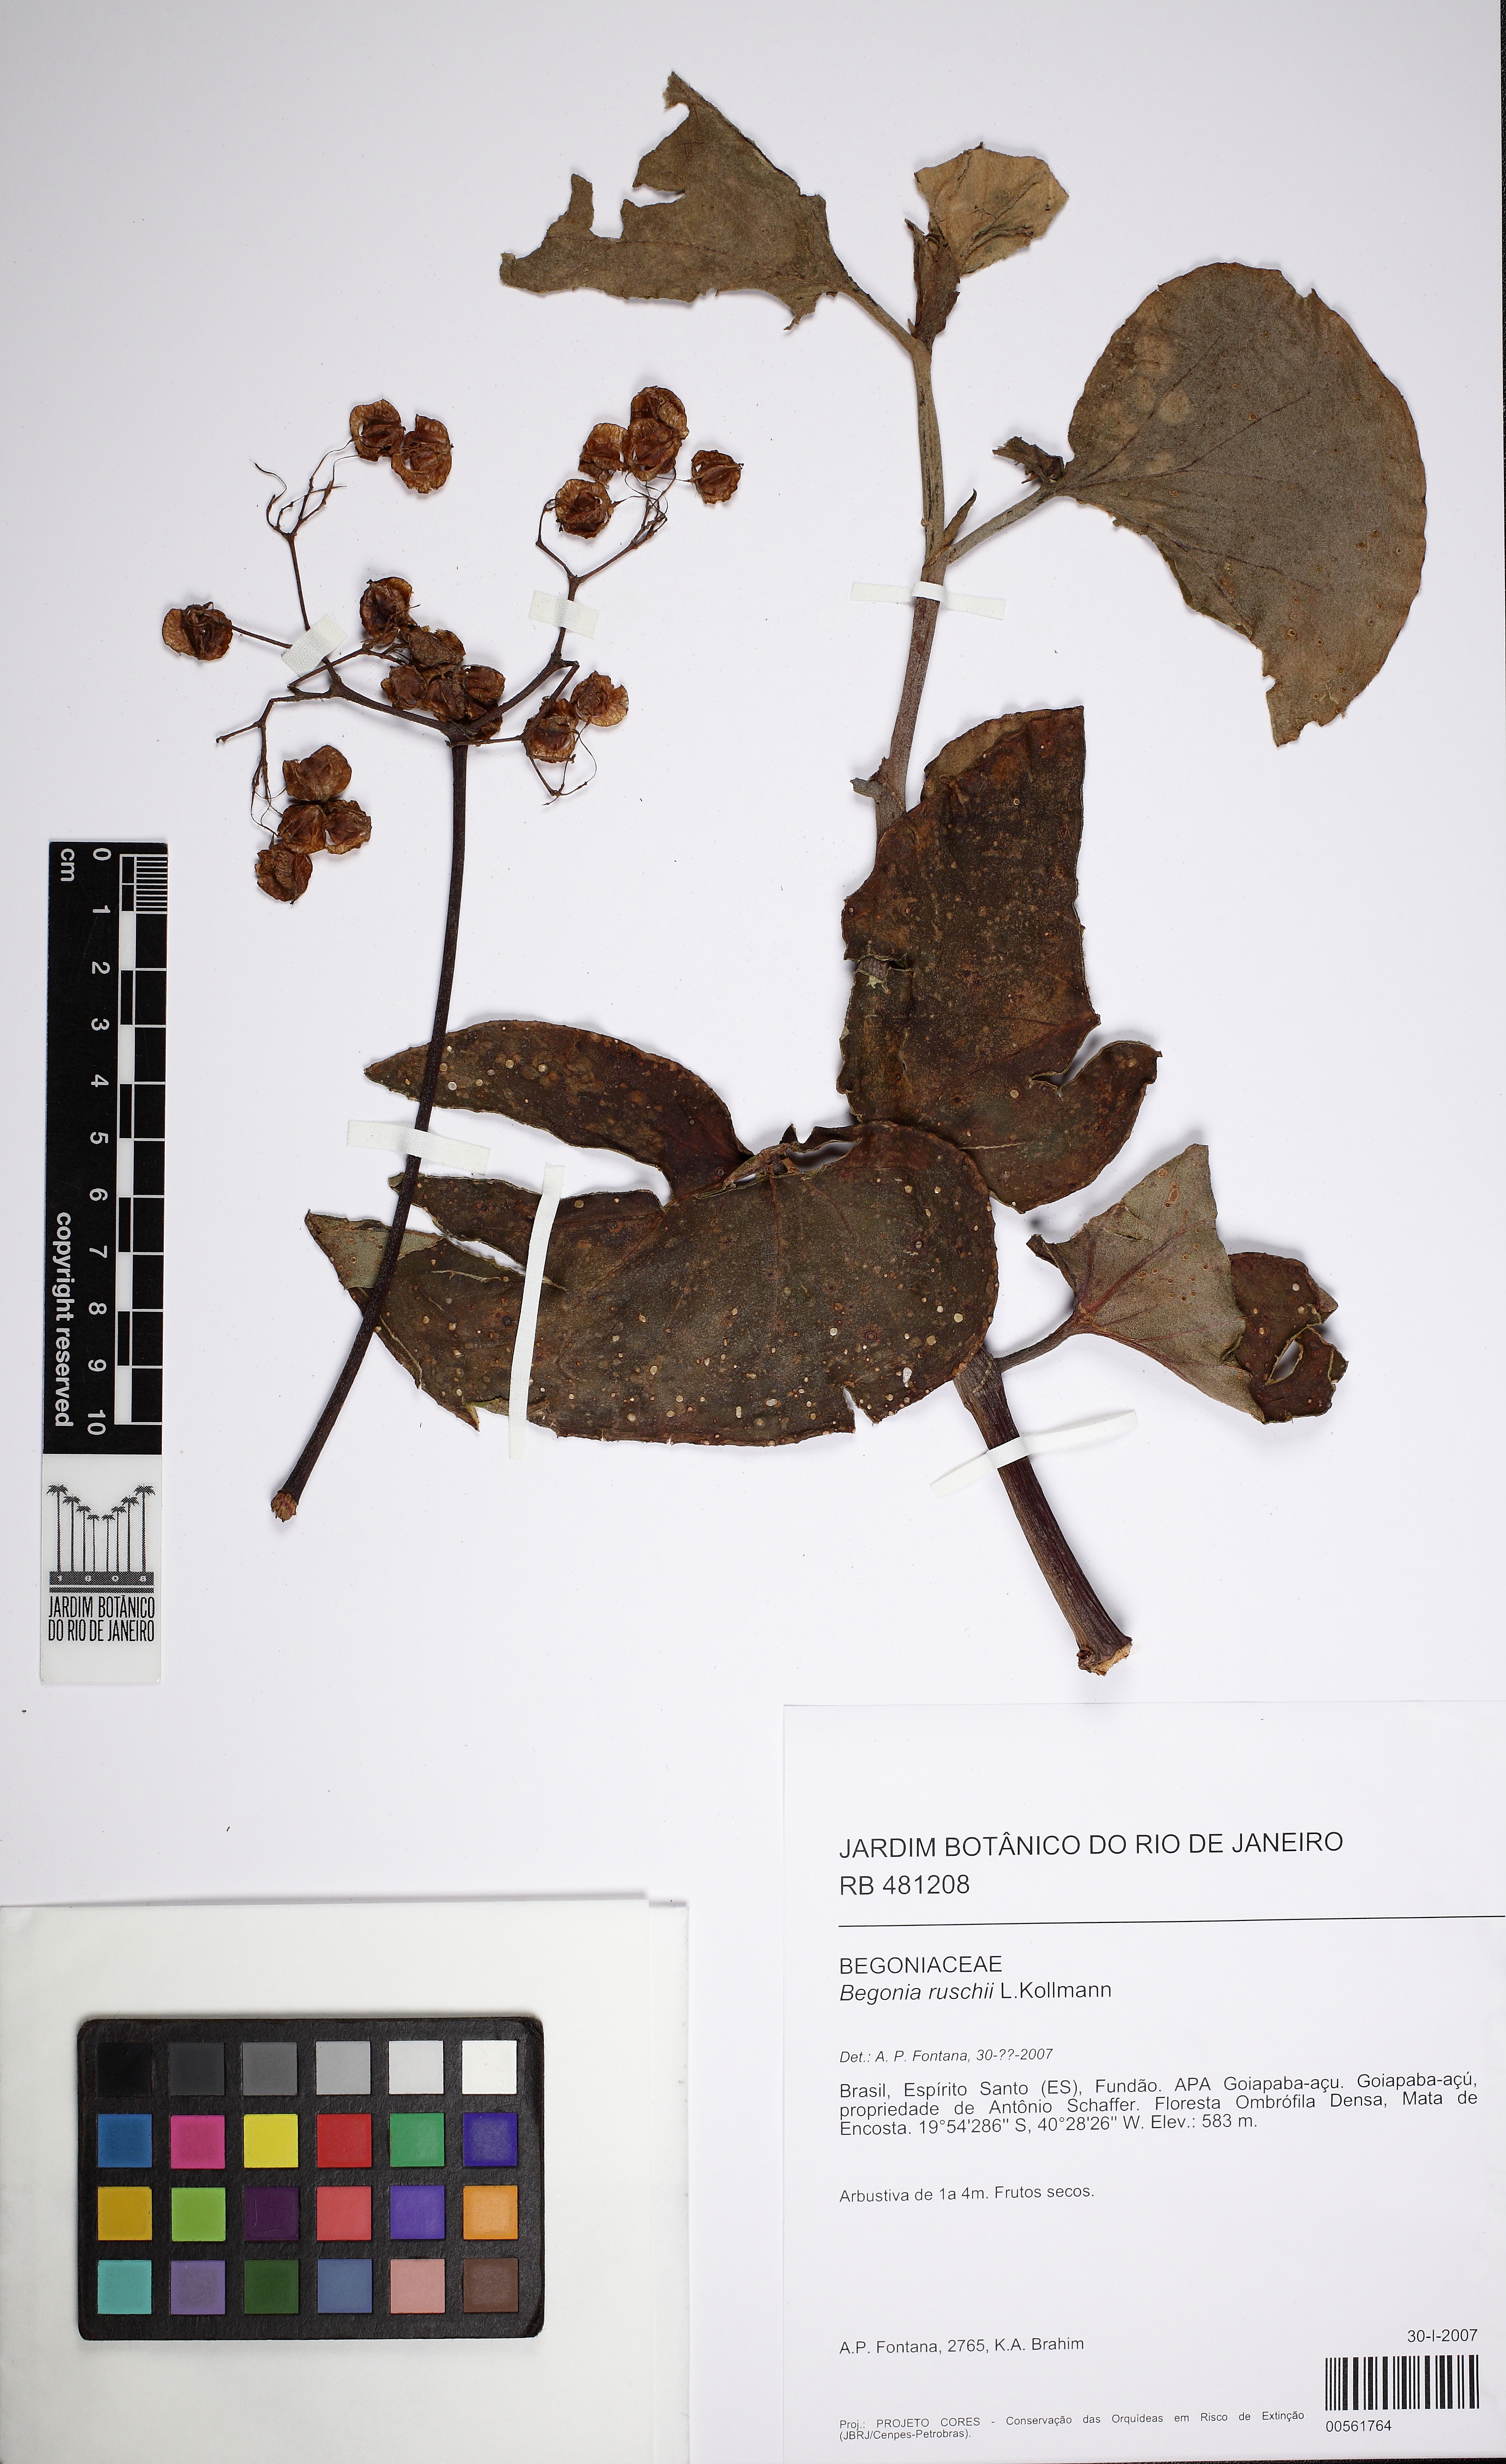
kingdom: Plantae
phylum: Tracheophyta
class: Magnoliopsida
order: Cucurbitales
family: Begoniaceae
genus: Begonia
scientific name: Begonia ruschii
